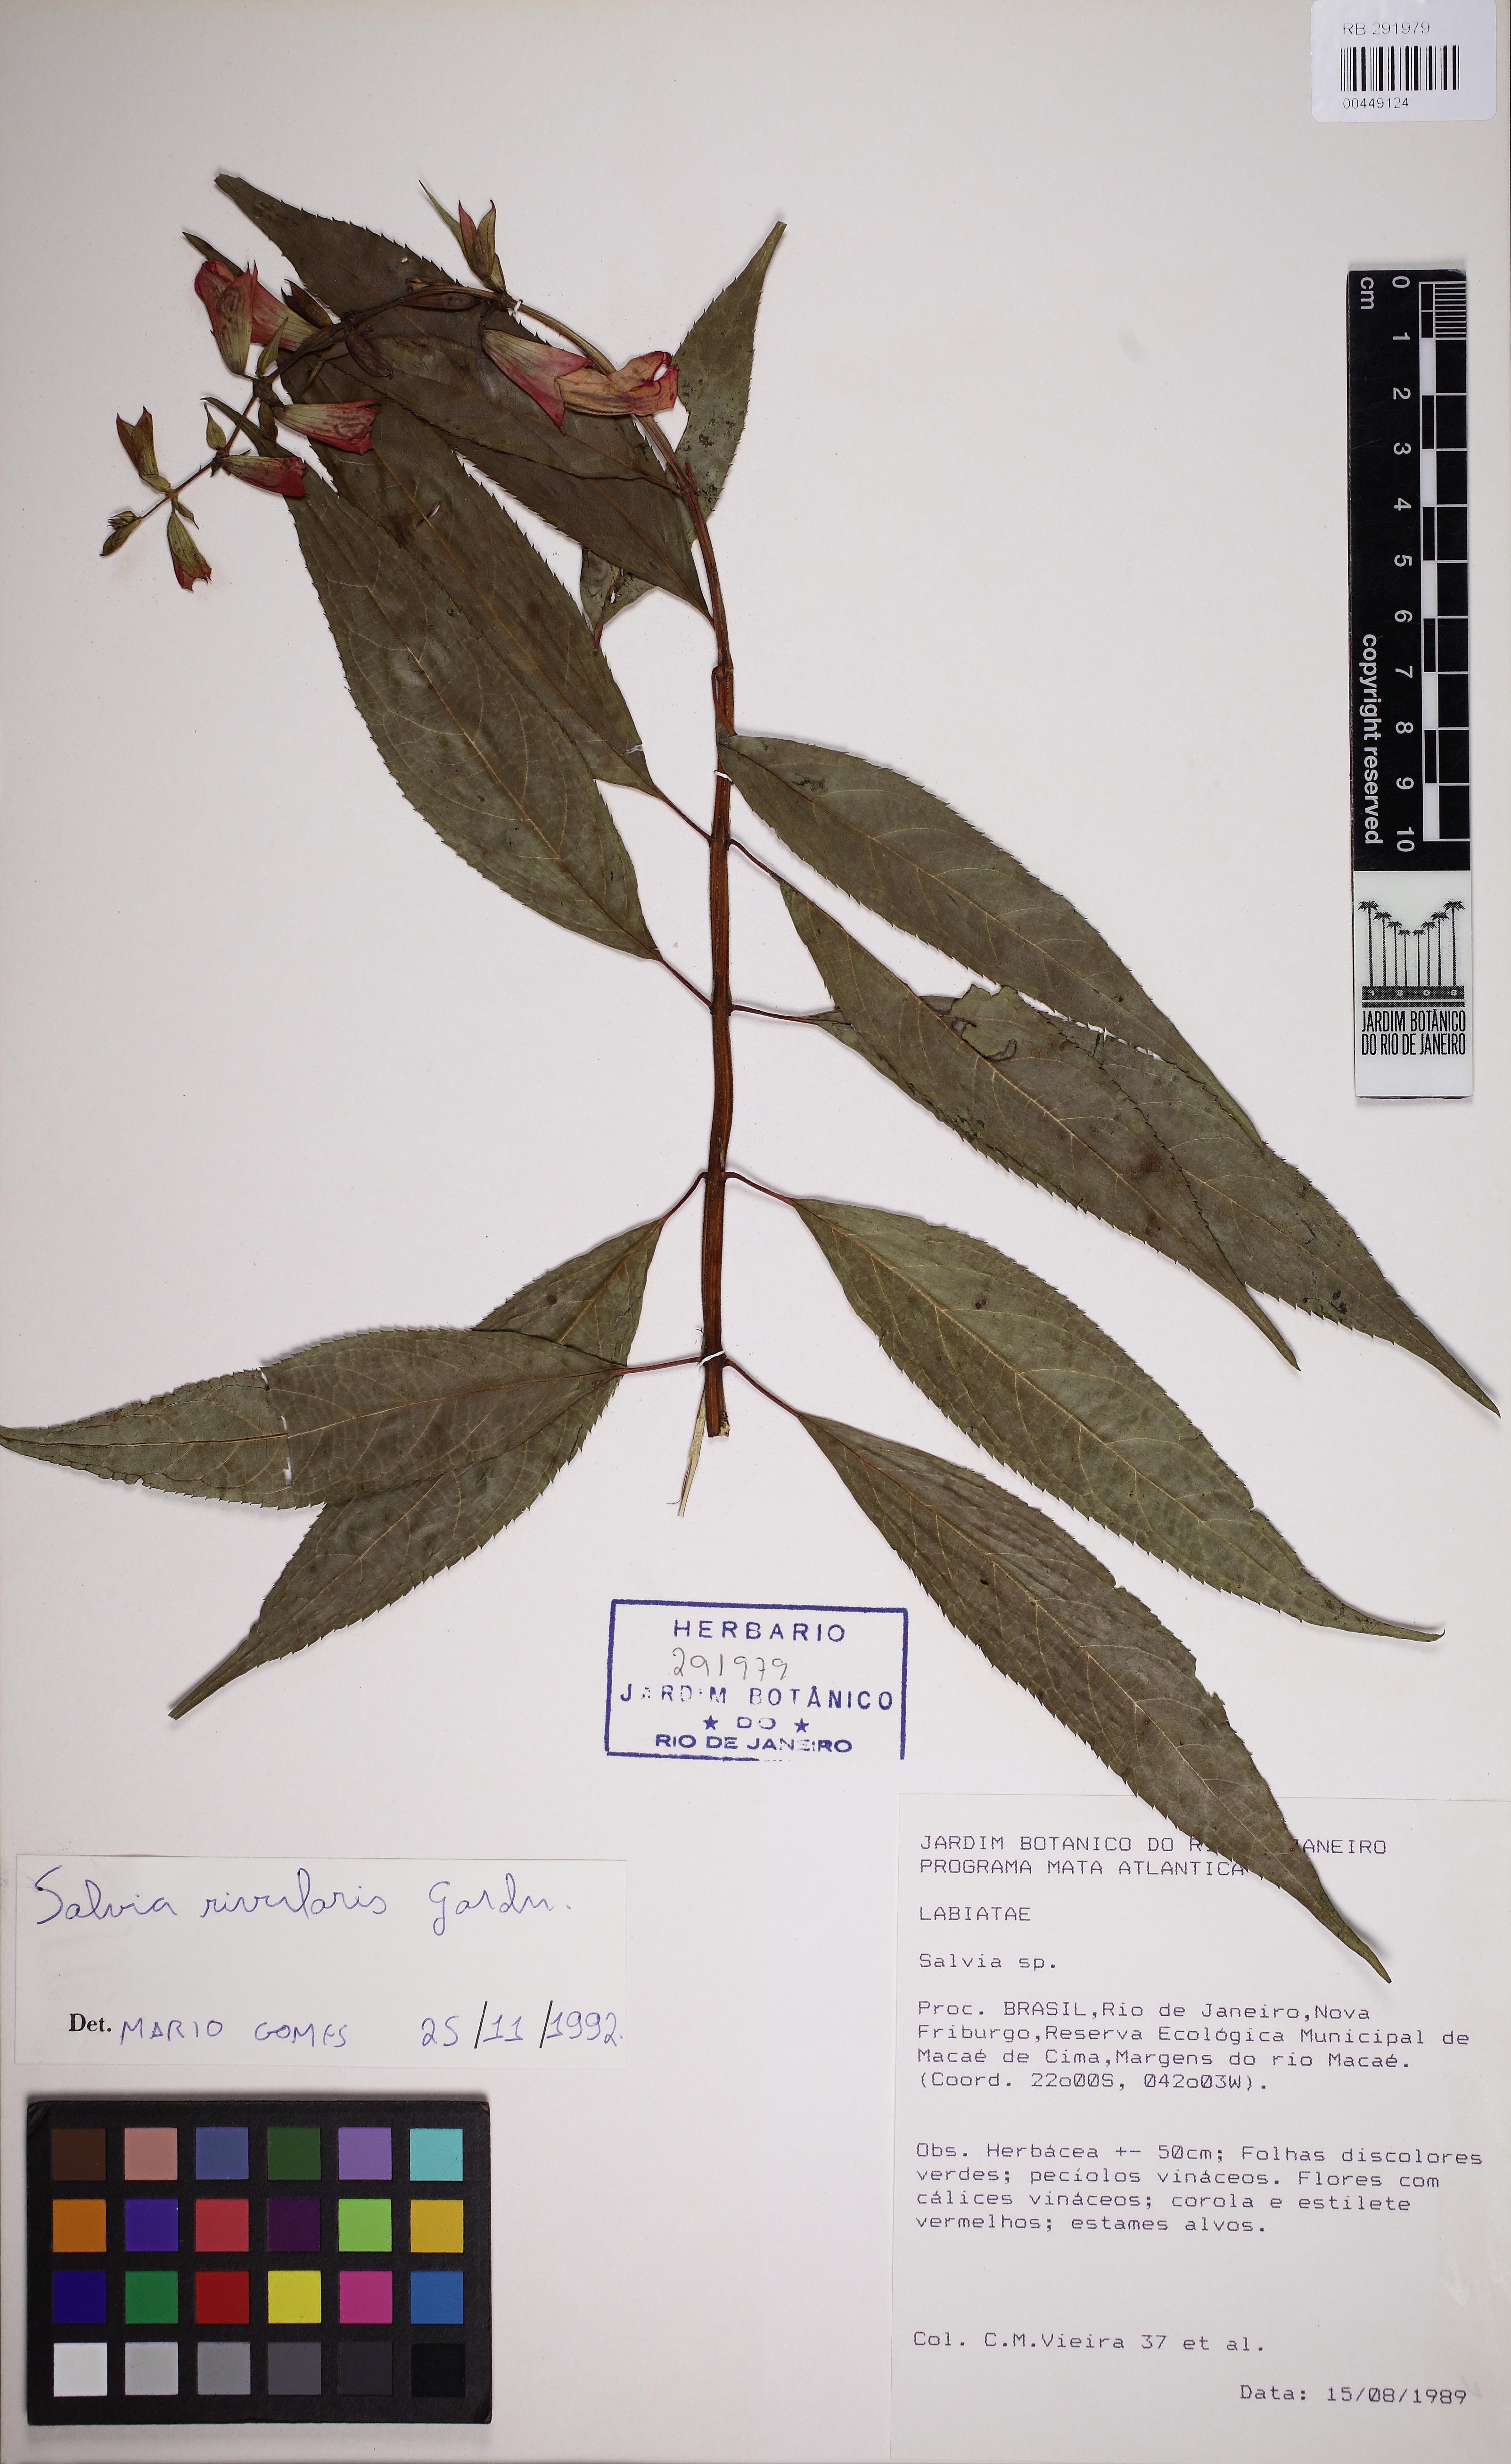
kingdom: Plantae
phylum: Tracheophyta
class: Magnoliopsida
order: Lamiales
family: Lamiaceae
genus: Salvia
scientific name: Salvia rivularis
